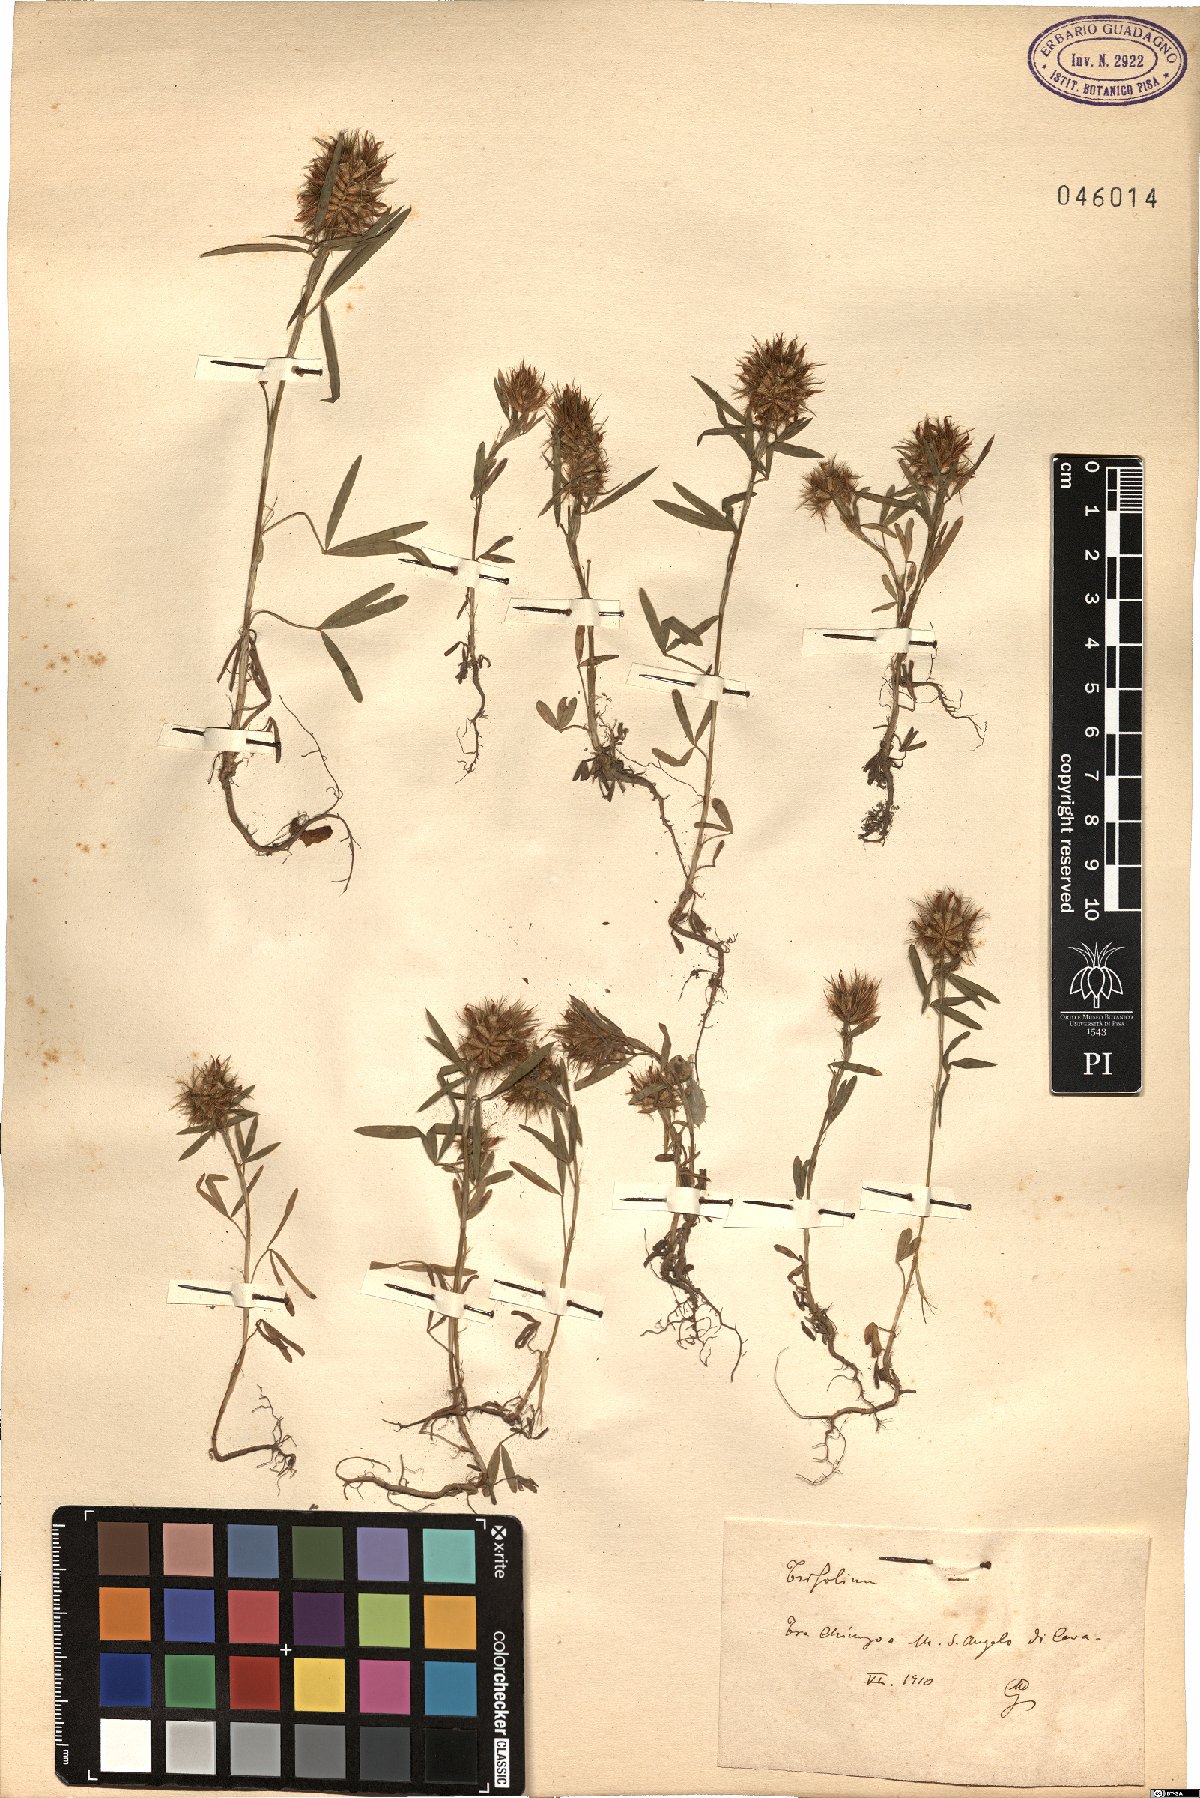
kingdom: Plantae
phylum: Tracheophyta
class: Magnoliopsida
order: Fabales
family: Fabaceae
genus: Trifolium
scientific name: Trifolium
